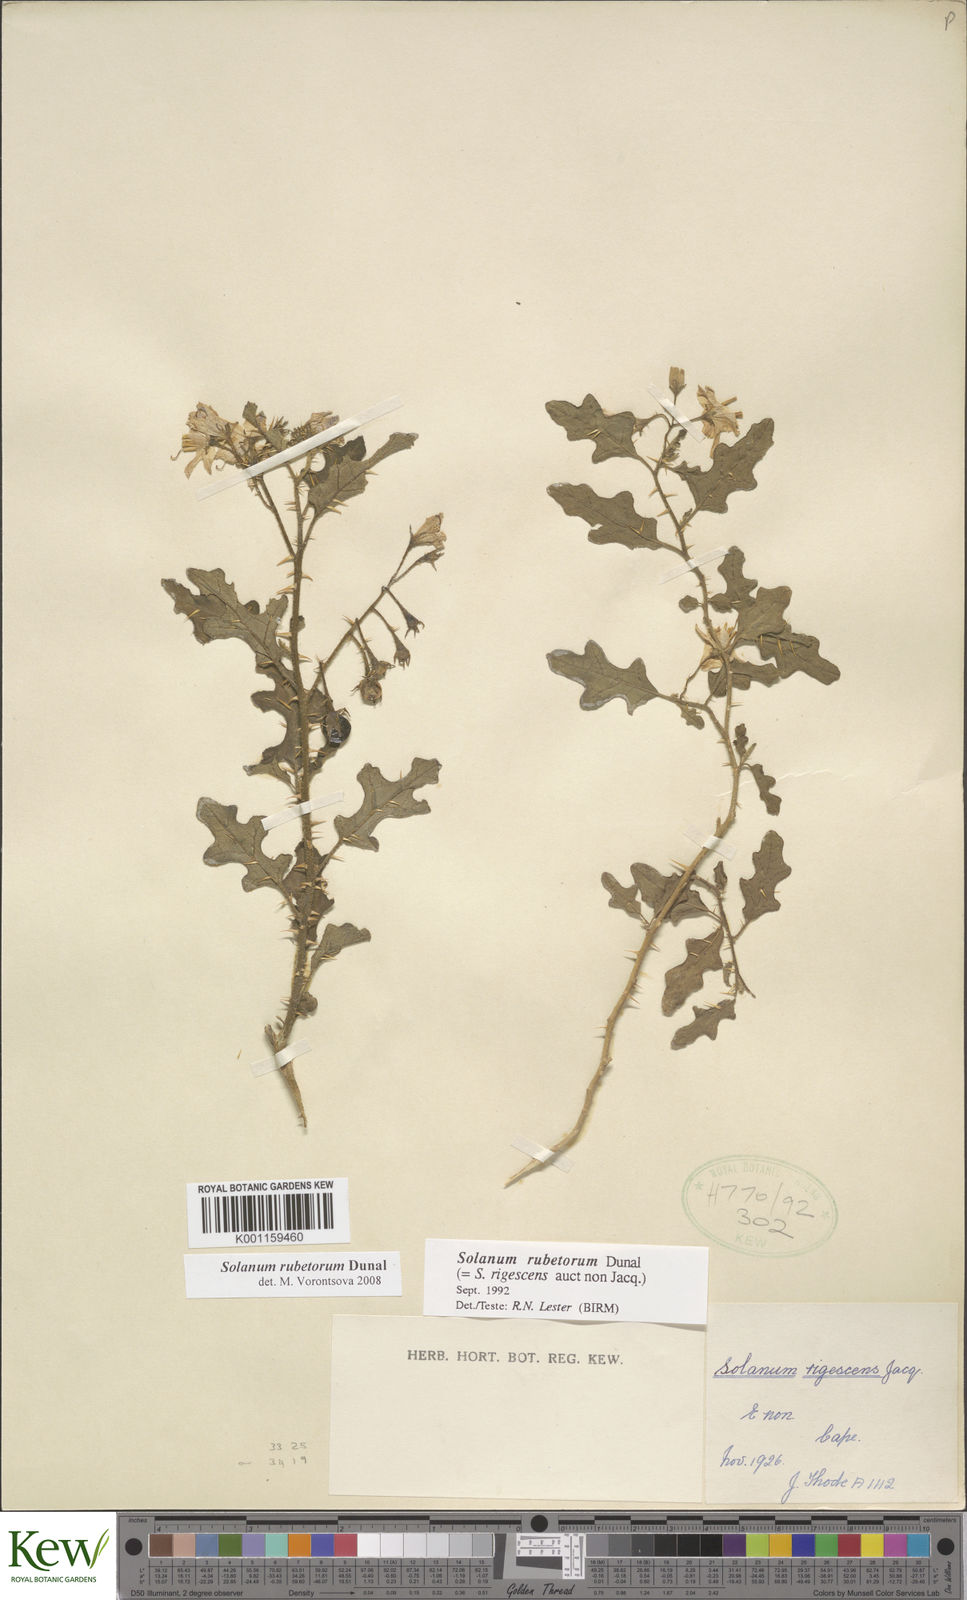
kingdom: Plantae
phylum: Tracheophyta
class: Magnoliopsida
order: Solanales
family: Solanaceae
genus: Solanum
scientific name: Solanum rubetorum
